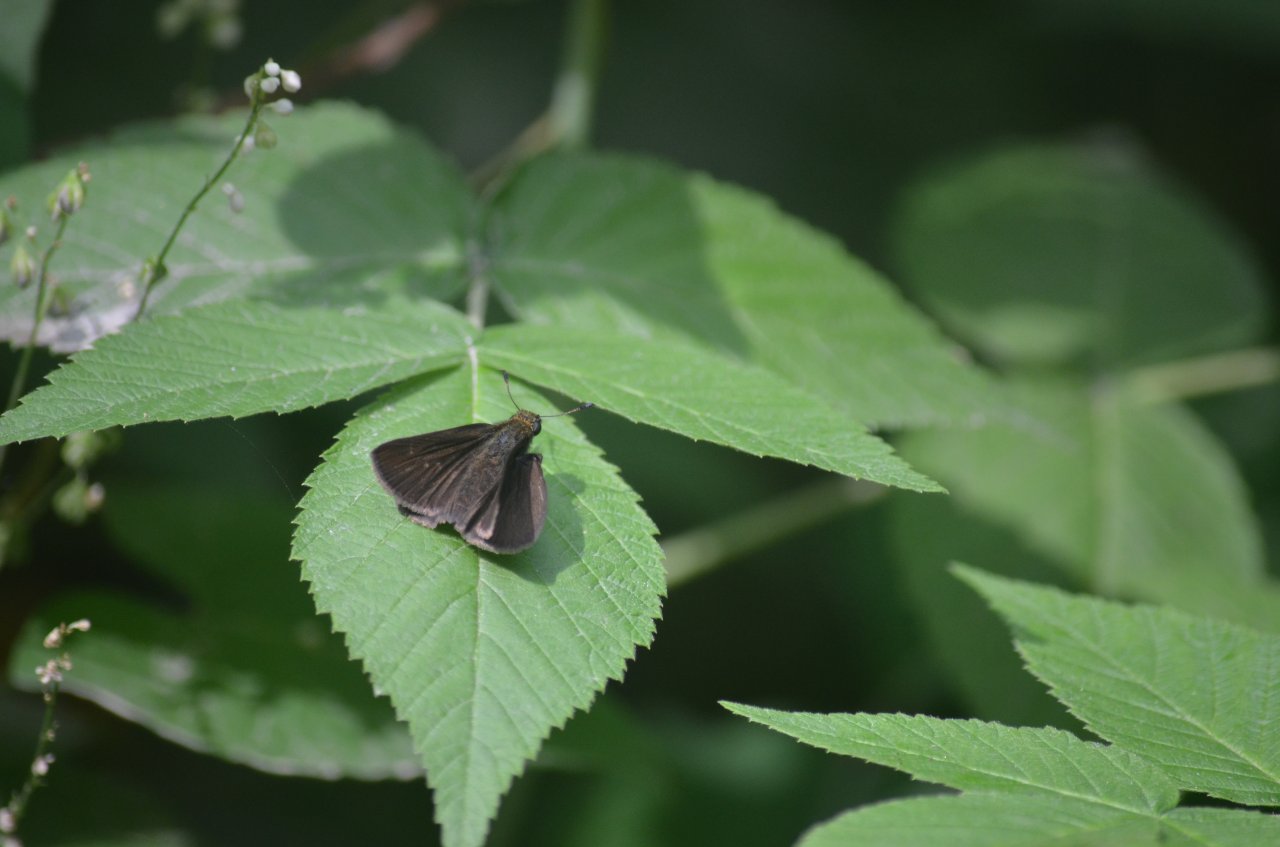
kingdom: Animalia
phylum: Arthropoda
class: Insecta
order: Lepidoptera
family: Hesperiidae
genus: Euphyes
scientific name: Euphyes vestris
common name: Dun Skipper
